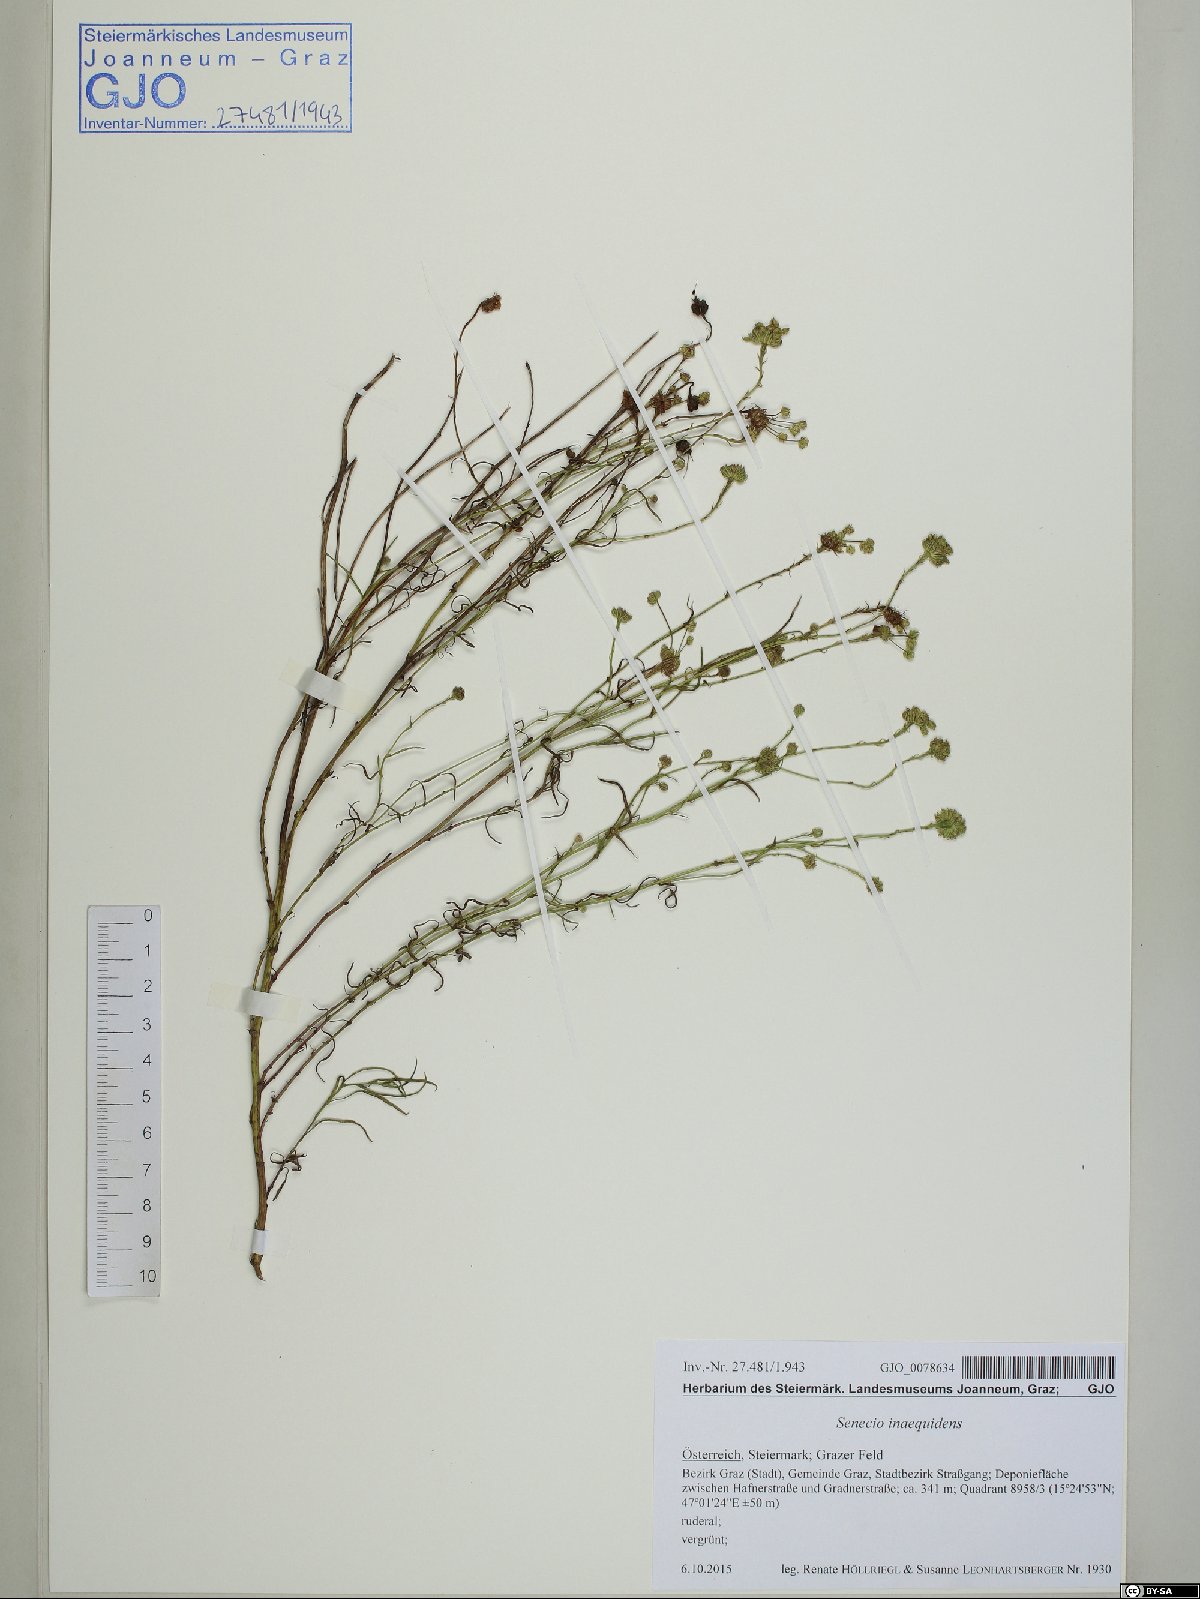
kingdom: Plantae
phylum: Tracheophyta
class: Magnoliopsida
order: Asterales
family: Asteraceae
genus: Senecio
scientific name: Senecio inaequidens
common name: Narrow-leaved ragwort
